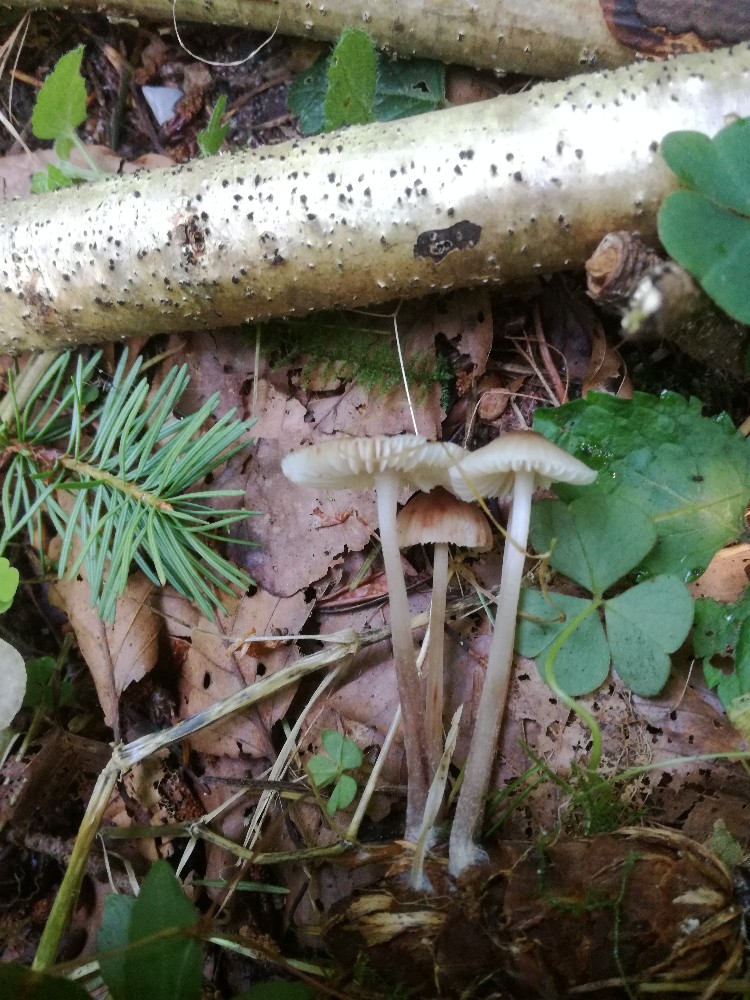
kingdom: Fungi
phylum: Basidiomycota
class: Agaricomycetes
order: Agaricales
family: Mycenaceae
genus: Mycena
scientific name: Mycena zephirus
